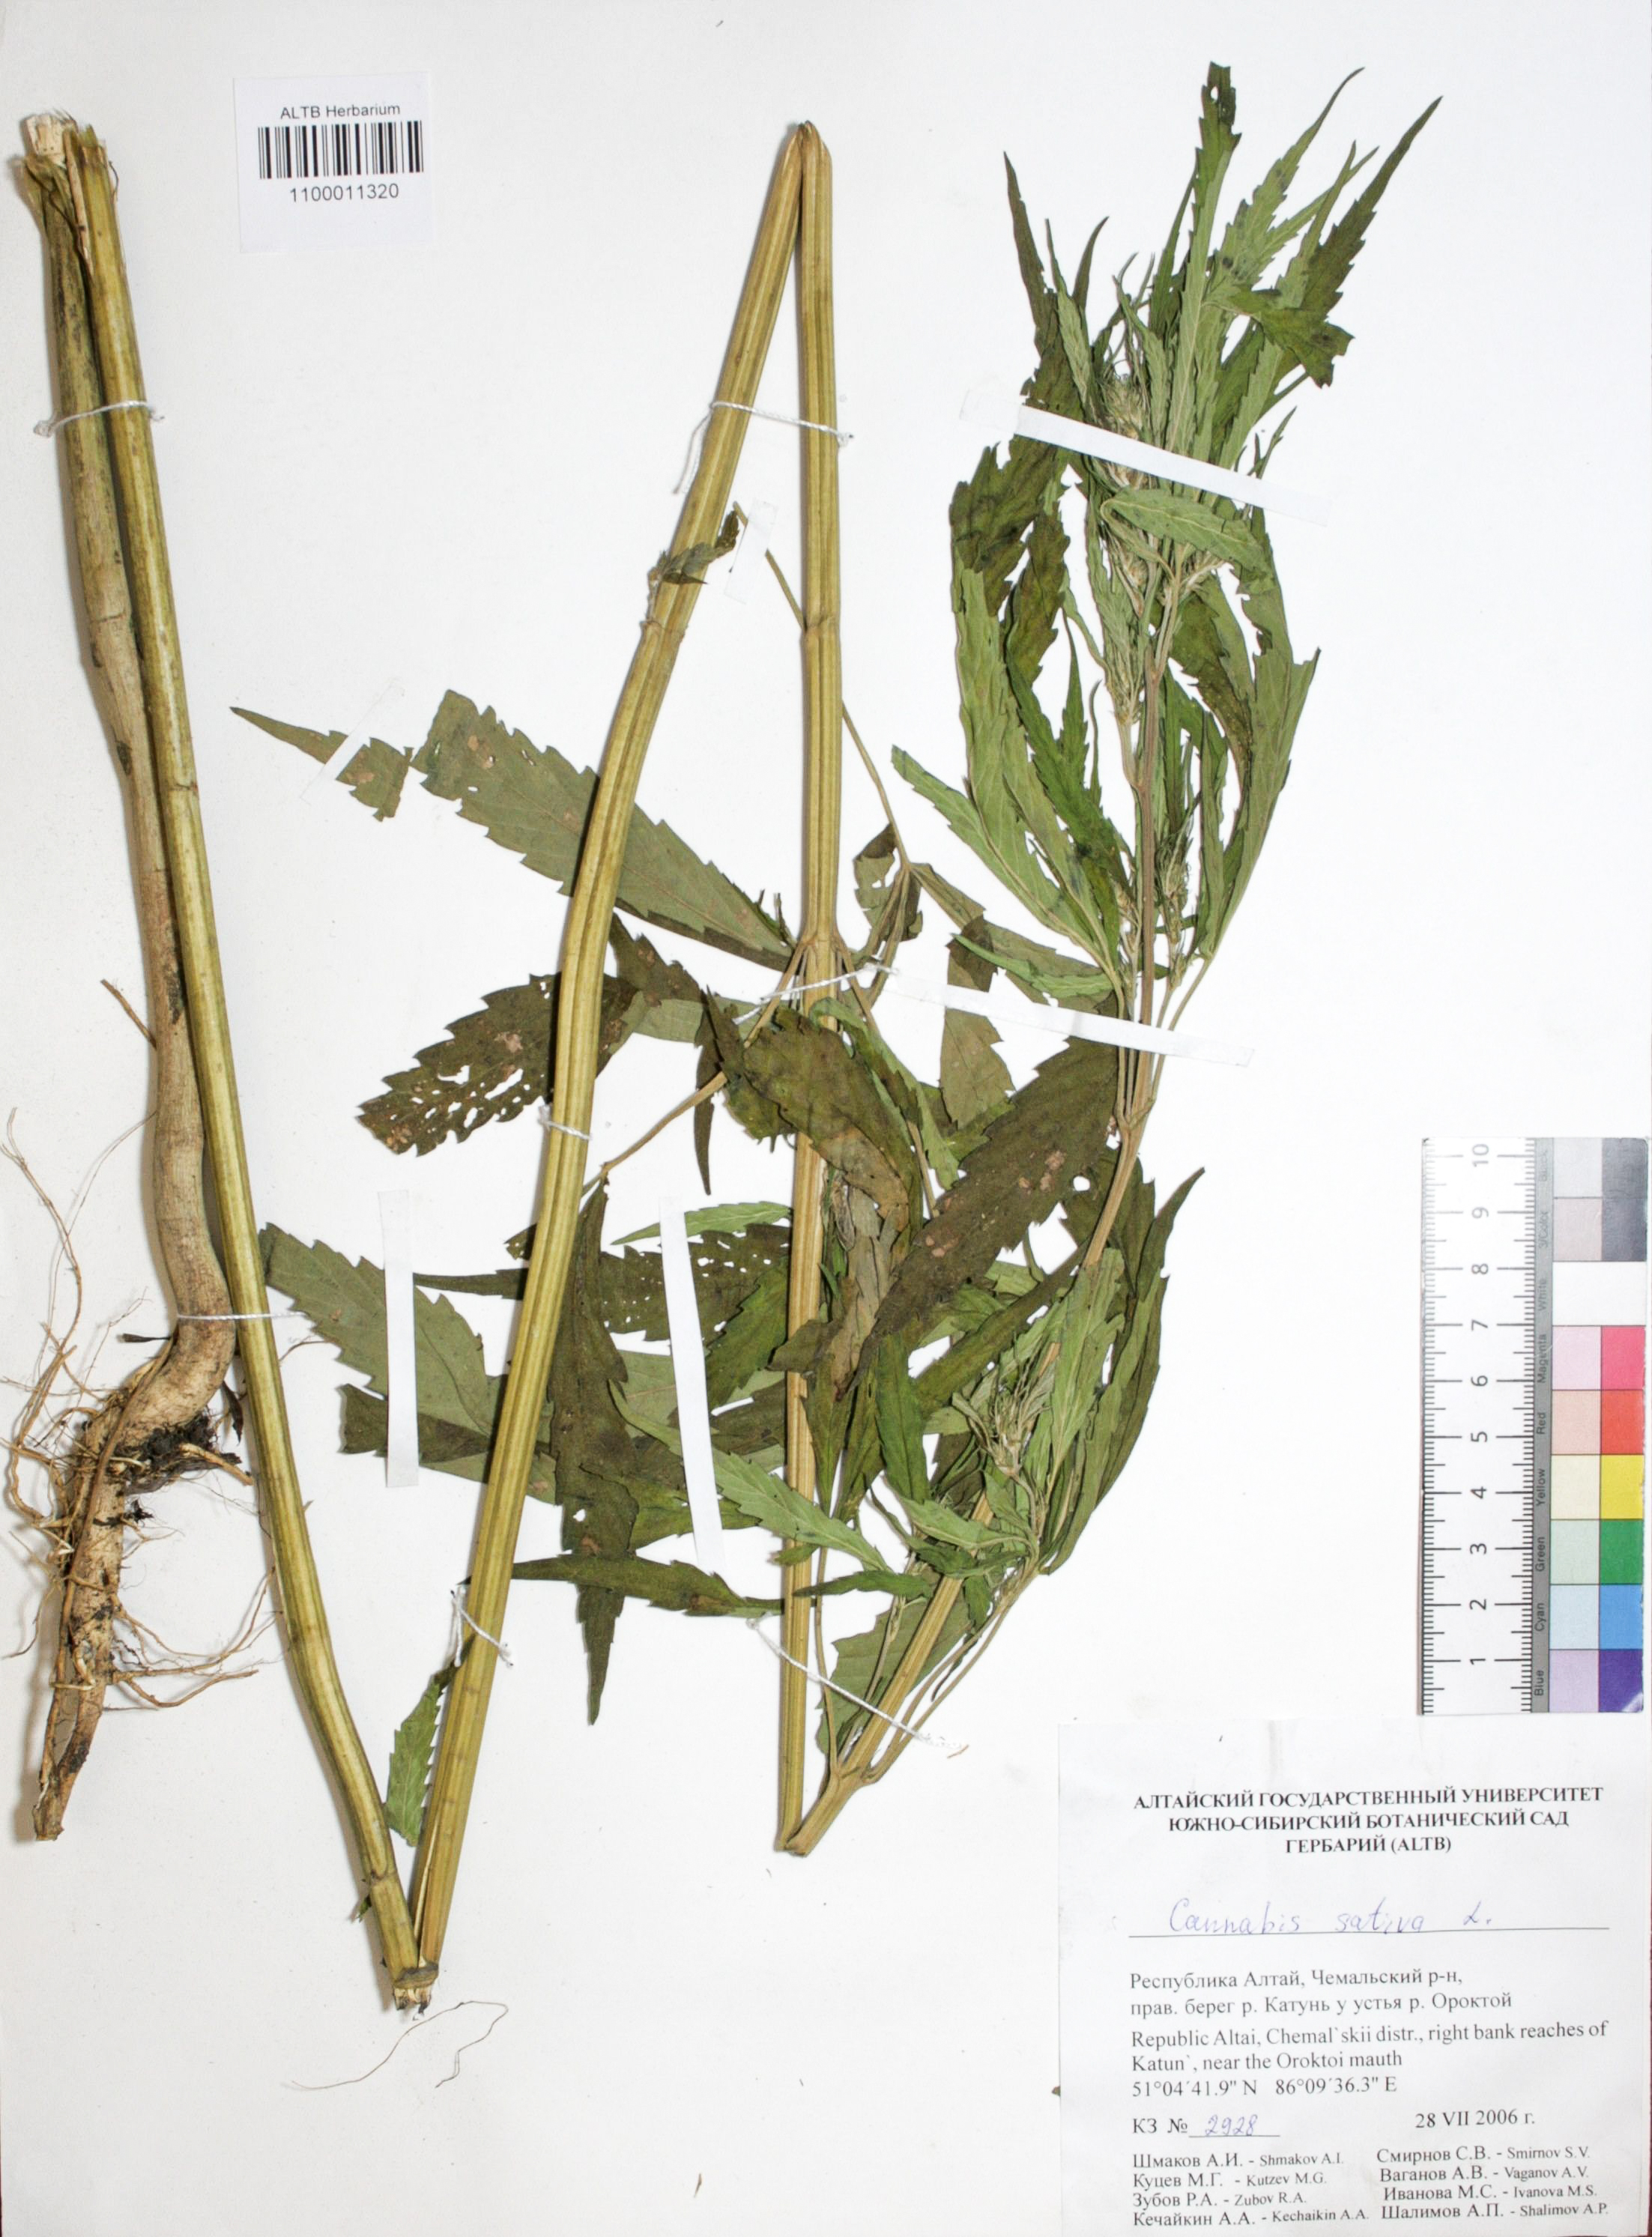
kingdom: Plantae
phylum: Tracheophyta
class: Magnoliopsida
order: Rosales
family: Cannabaceae
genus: Cannabis
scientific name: Cannabis sativa
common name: Hemp
